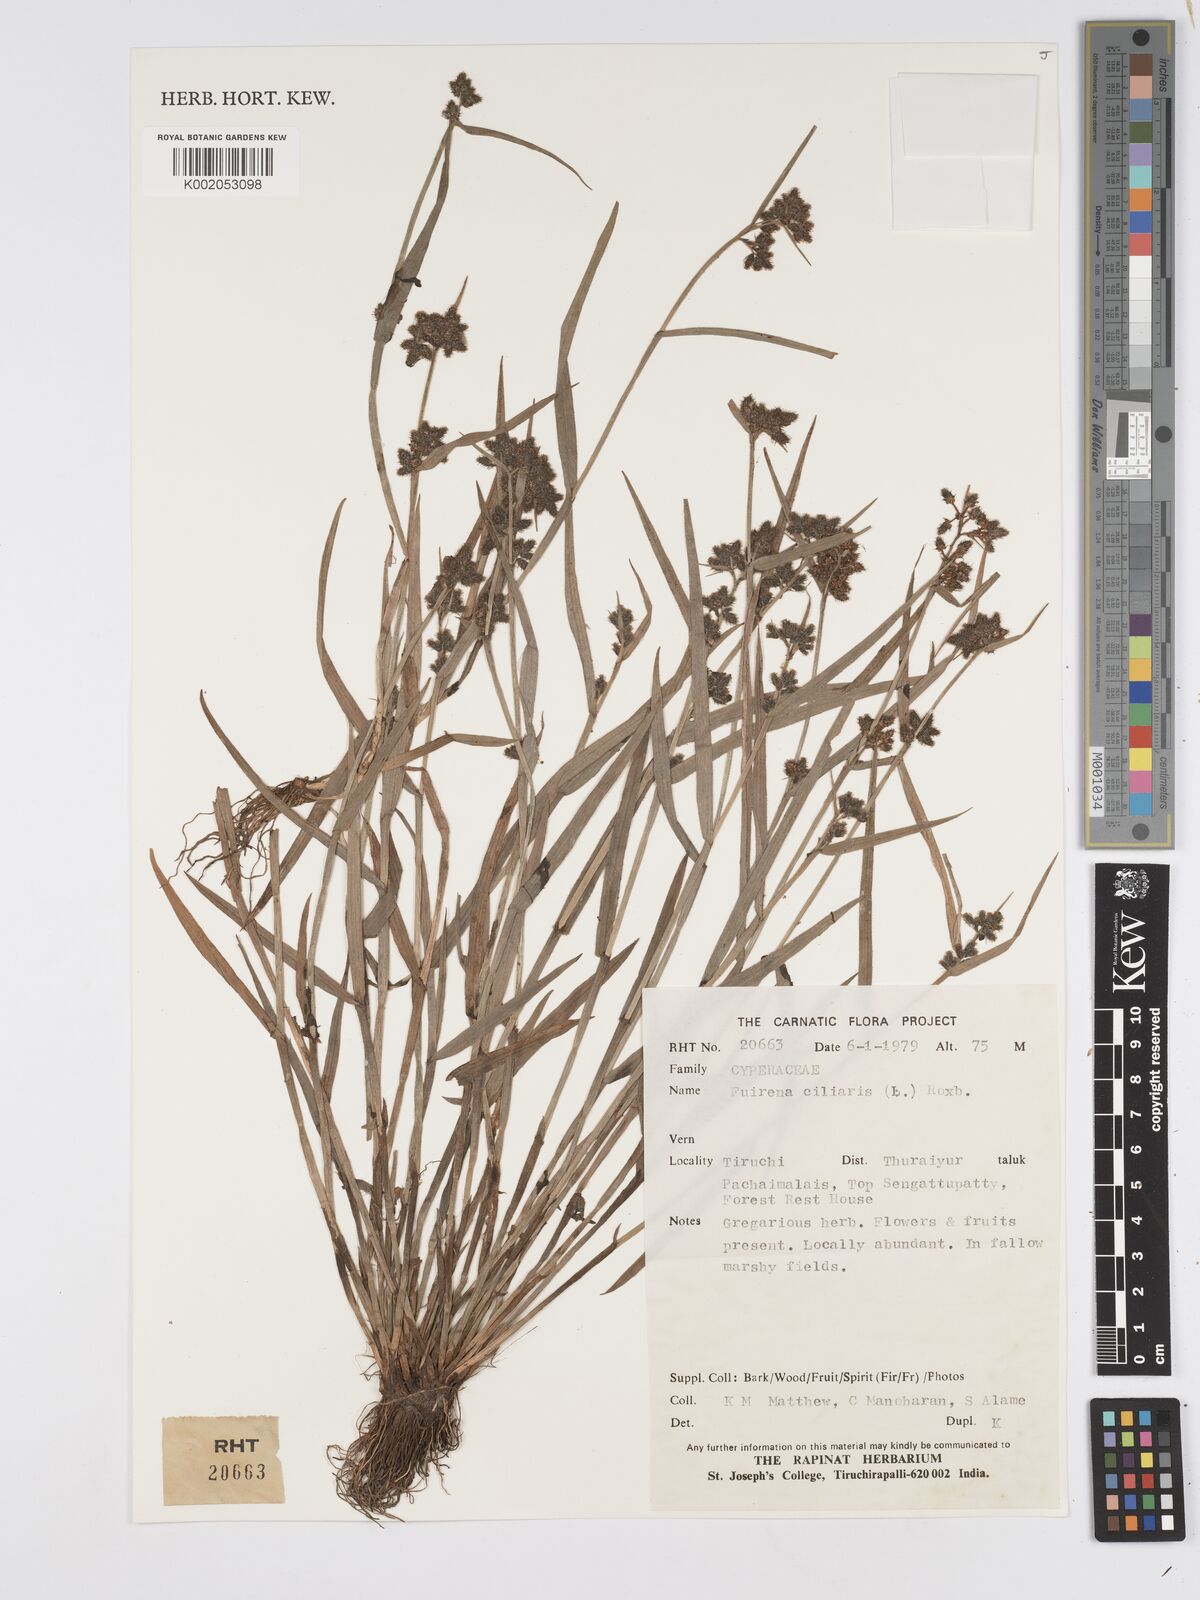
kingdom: Plantae
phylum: Tracheophyta
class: Liliopsida
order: Poales
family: Cyperaceae
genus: Fuirena
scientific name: Fuirena ciliaris
